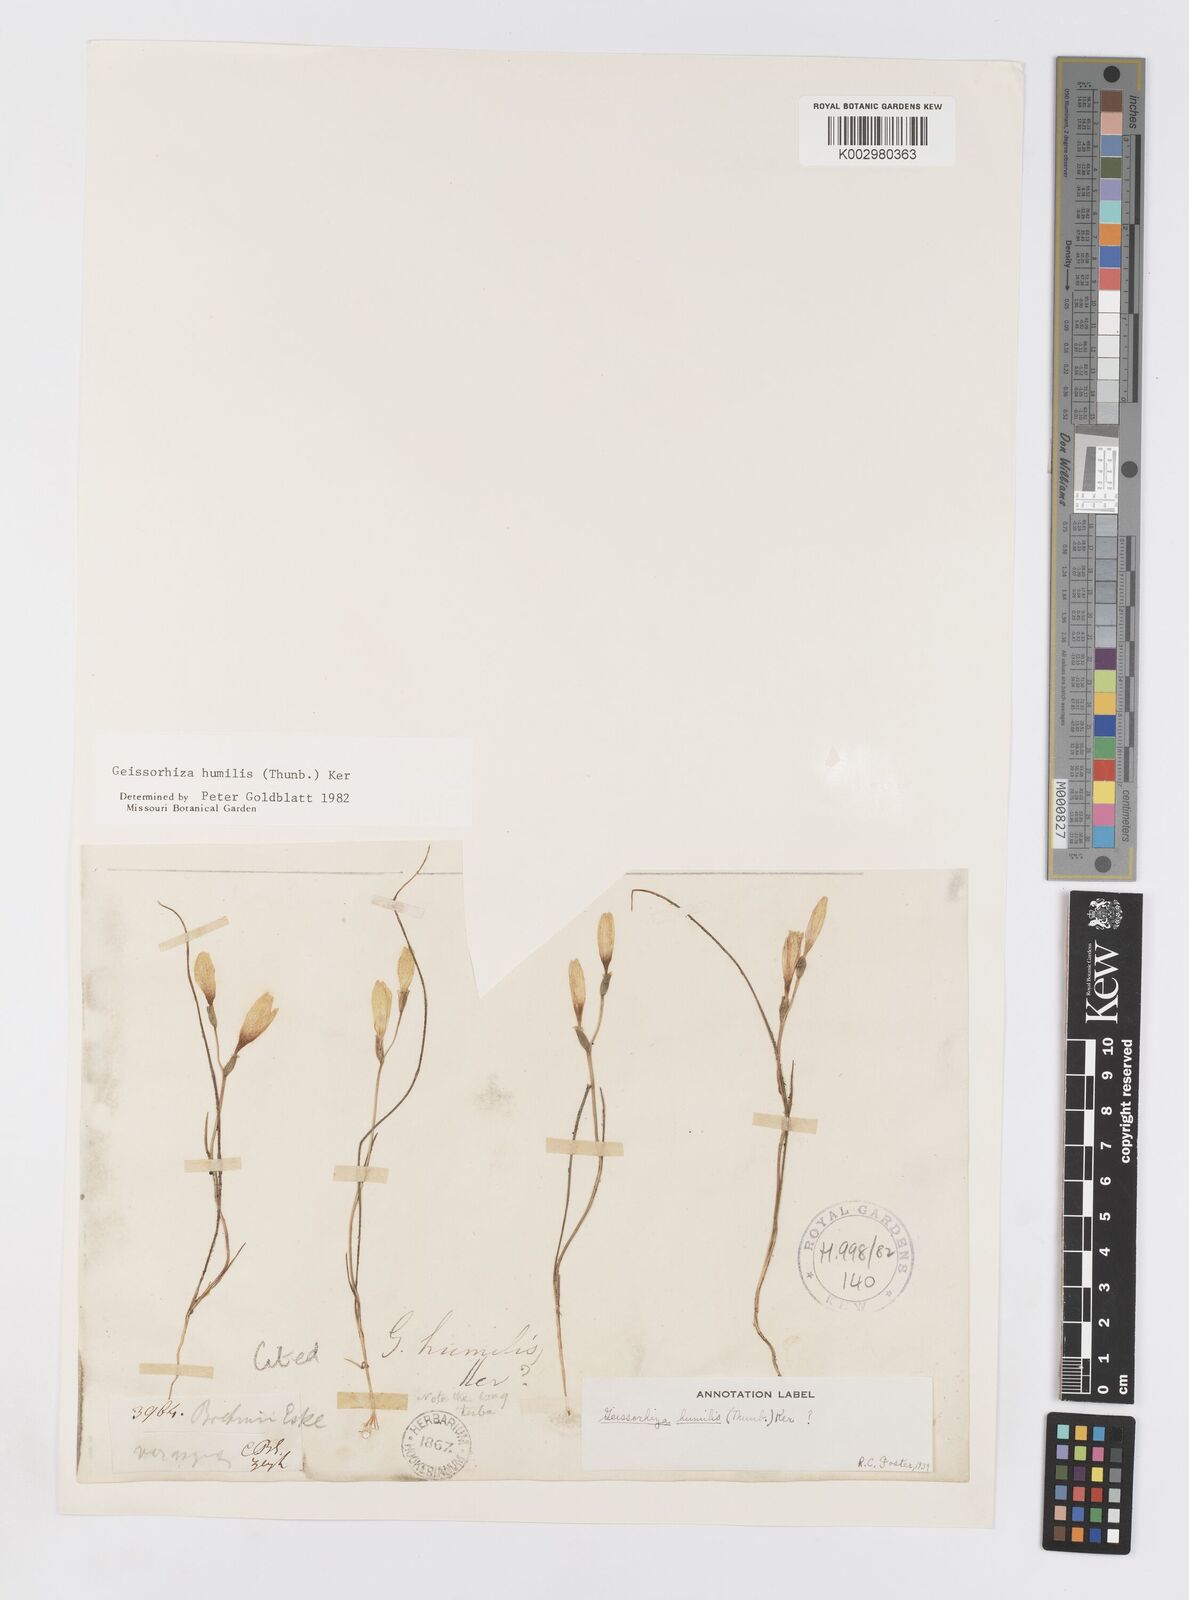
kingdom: Plantae
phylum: Tracheophyta
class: Liliopsida
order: Asparagales
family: Iridaceae
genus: Geissorhiza
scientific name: Geissorhiza humilis
